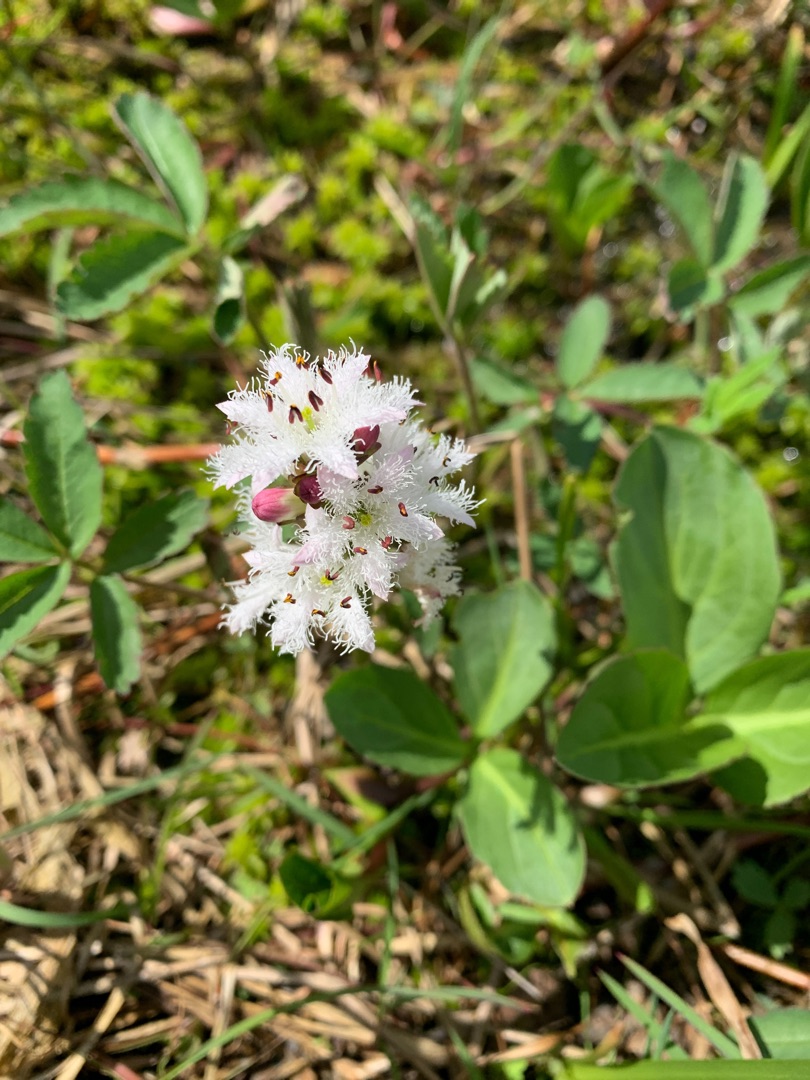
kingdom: Plantae
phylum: Tracheophyta
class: Magnoliopsida
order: Asterales
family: Menyanthaceae
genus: Menyanthes
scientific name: Menyanthes trifoliata
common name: Bukkeblad
